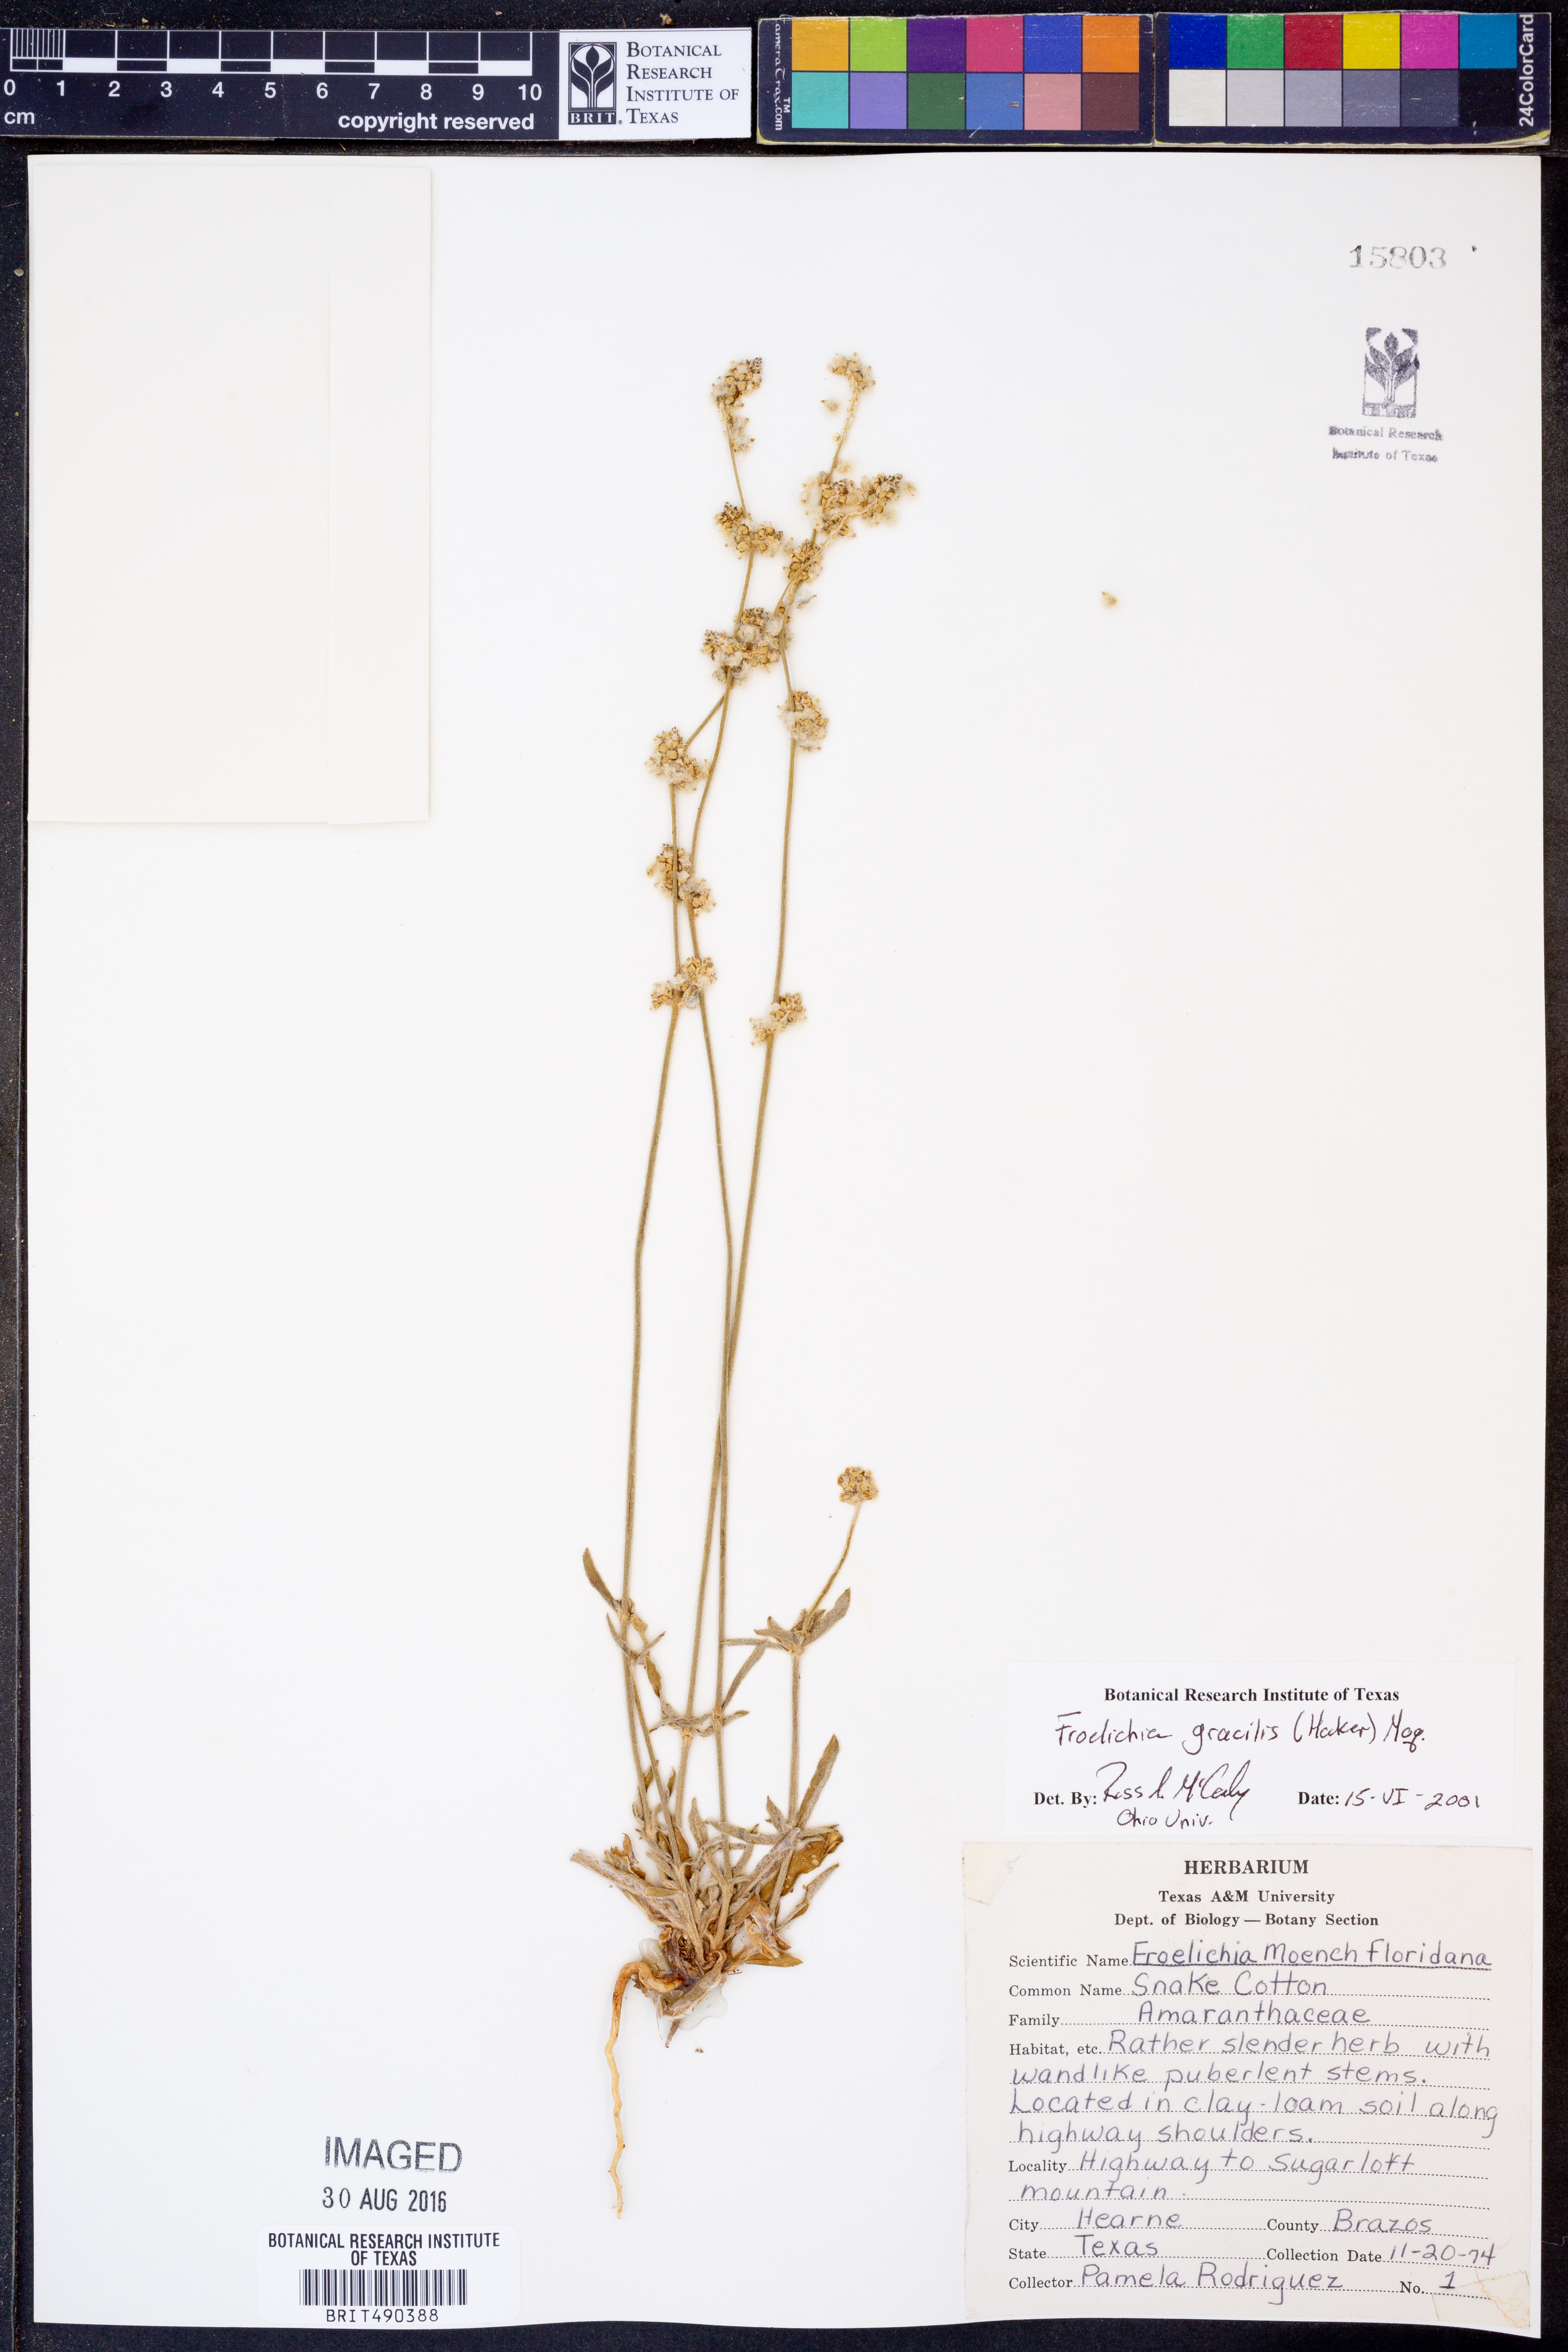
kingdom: Plantae
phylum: Tracheophyta
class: Magnoliopsida
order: Caryophyllales
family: Amaranthaceae
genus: Froelichia
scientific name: Froelichia gracilis
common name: Slender cottonweed
